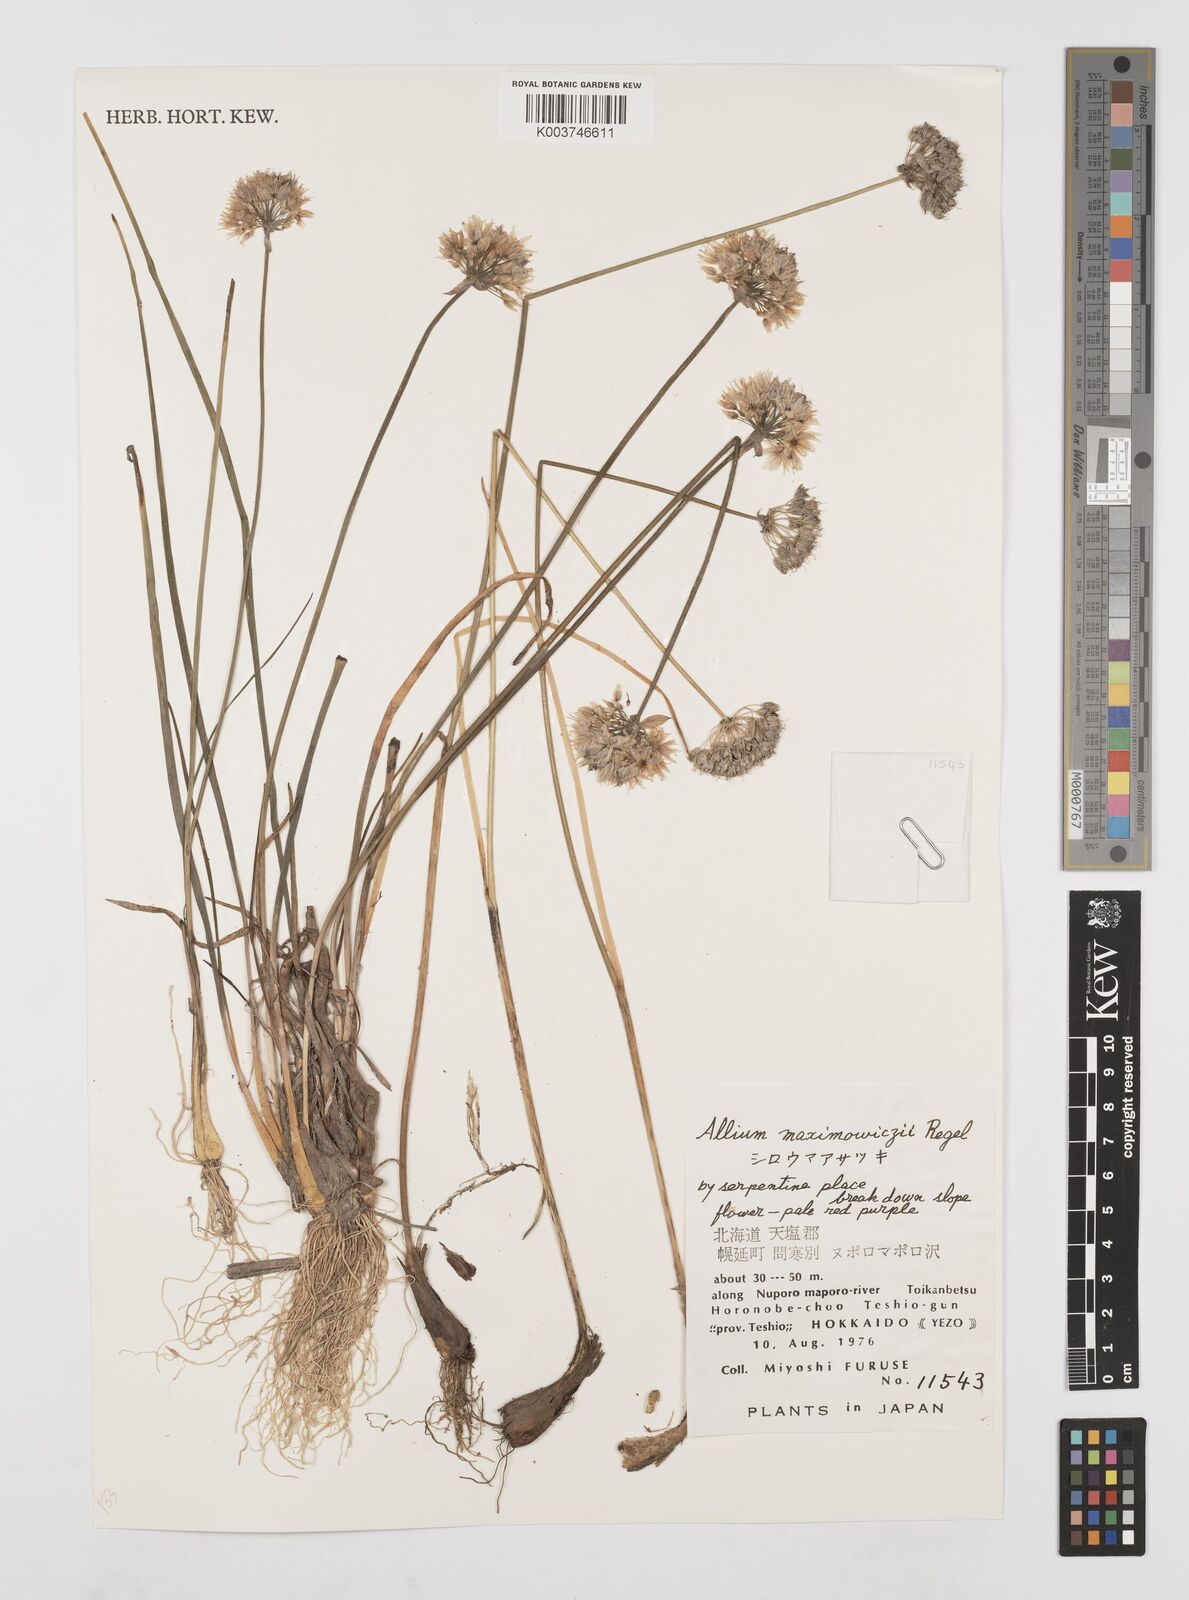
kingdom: Plantae
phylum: Tracheophyta
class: Liliopsida
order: Asparagales
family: Amaryllidaceae
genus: Allium
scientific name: Allium maximowiczii
